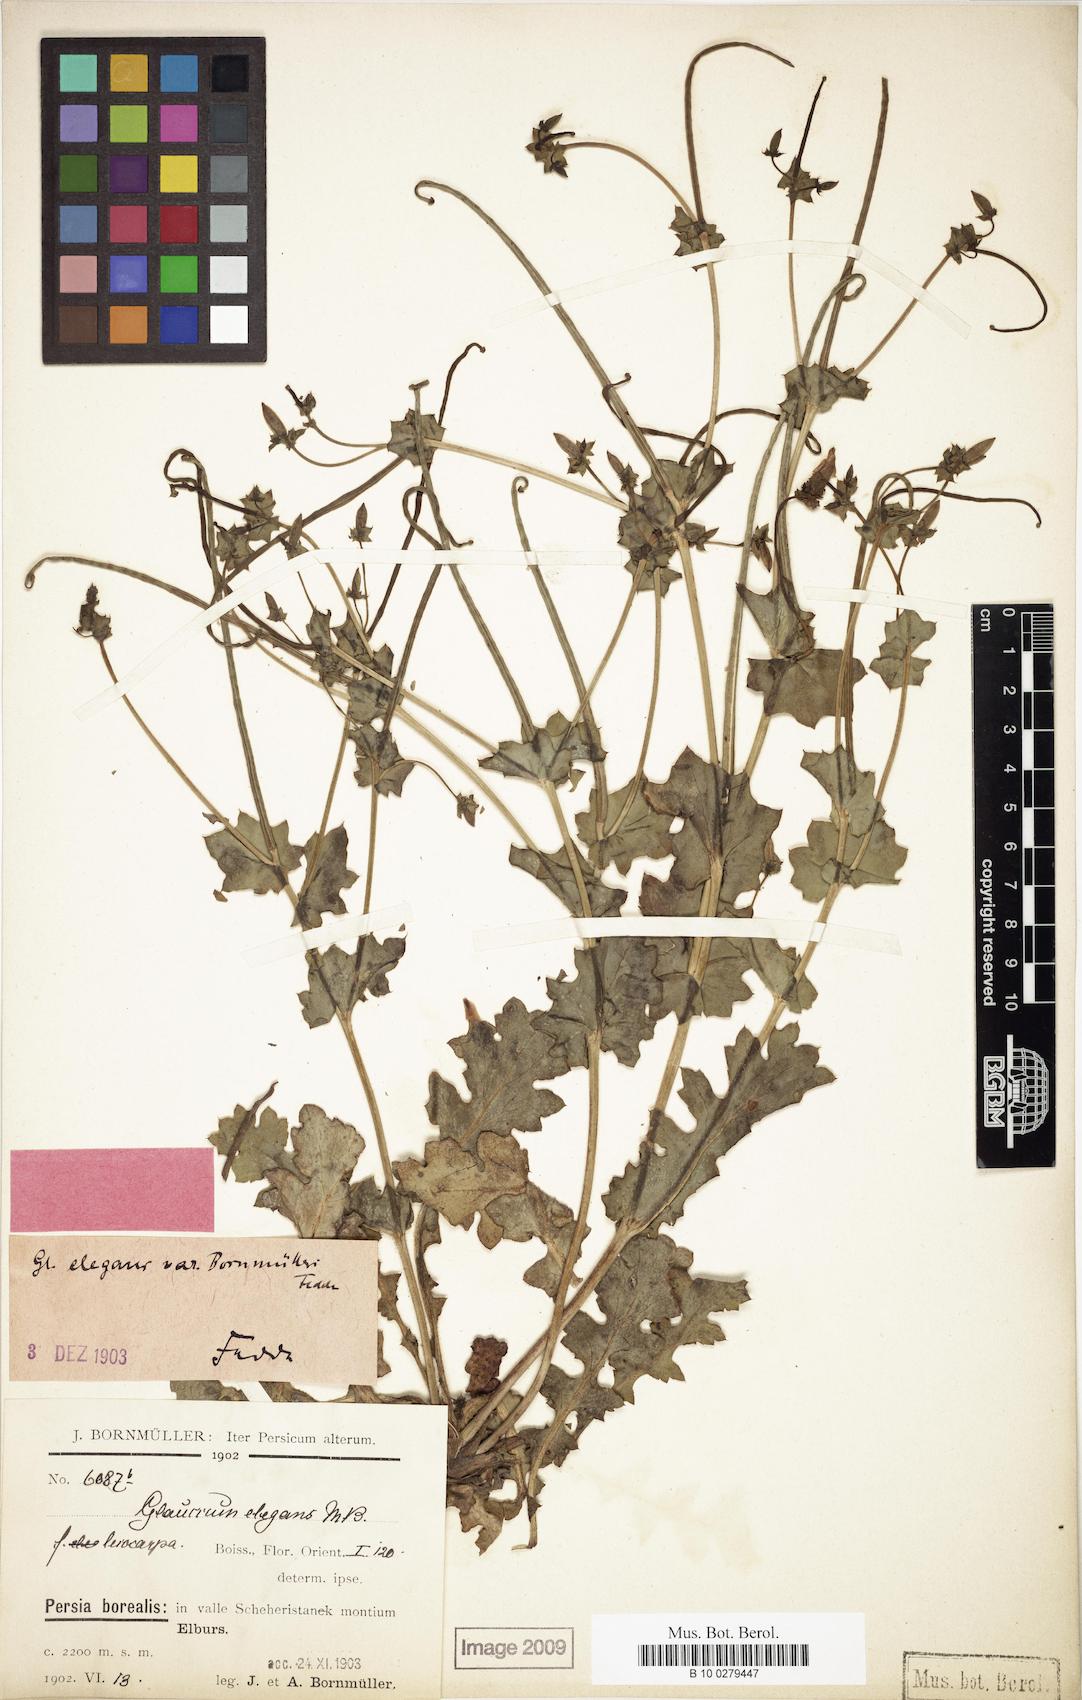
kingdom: Plantae
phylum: Tracheophyta
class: Magnoliopsida
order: Ranunculales
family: Papaveraceae
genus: Glaucium
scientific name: Glaucium elegans
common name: Annual horned-poppy
